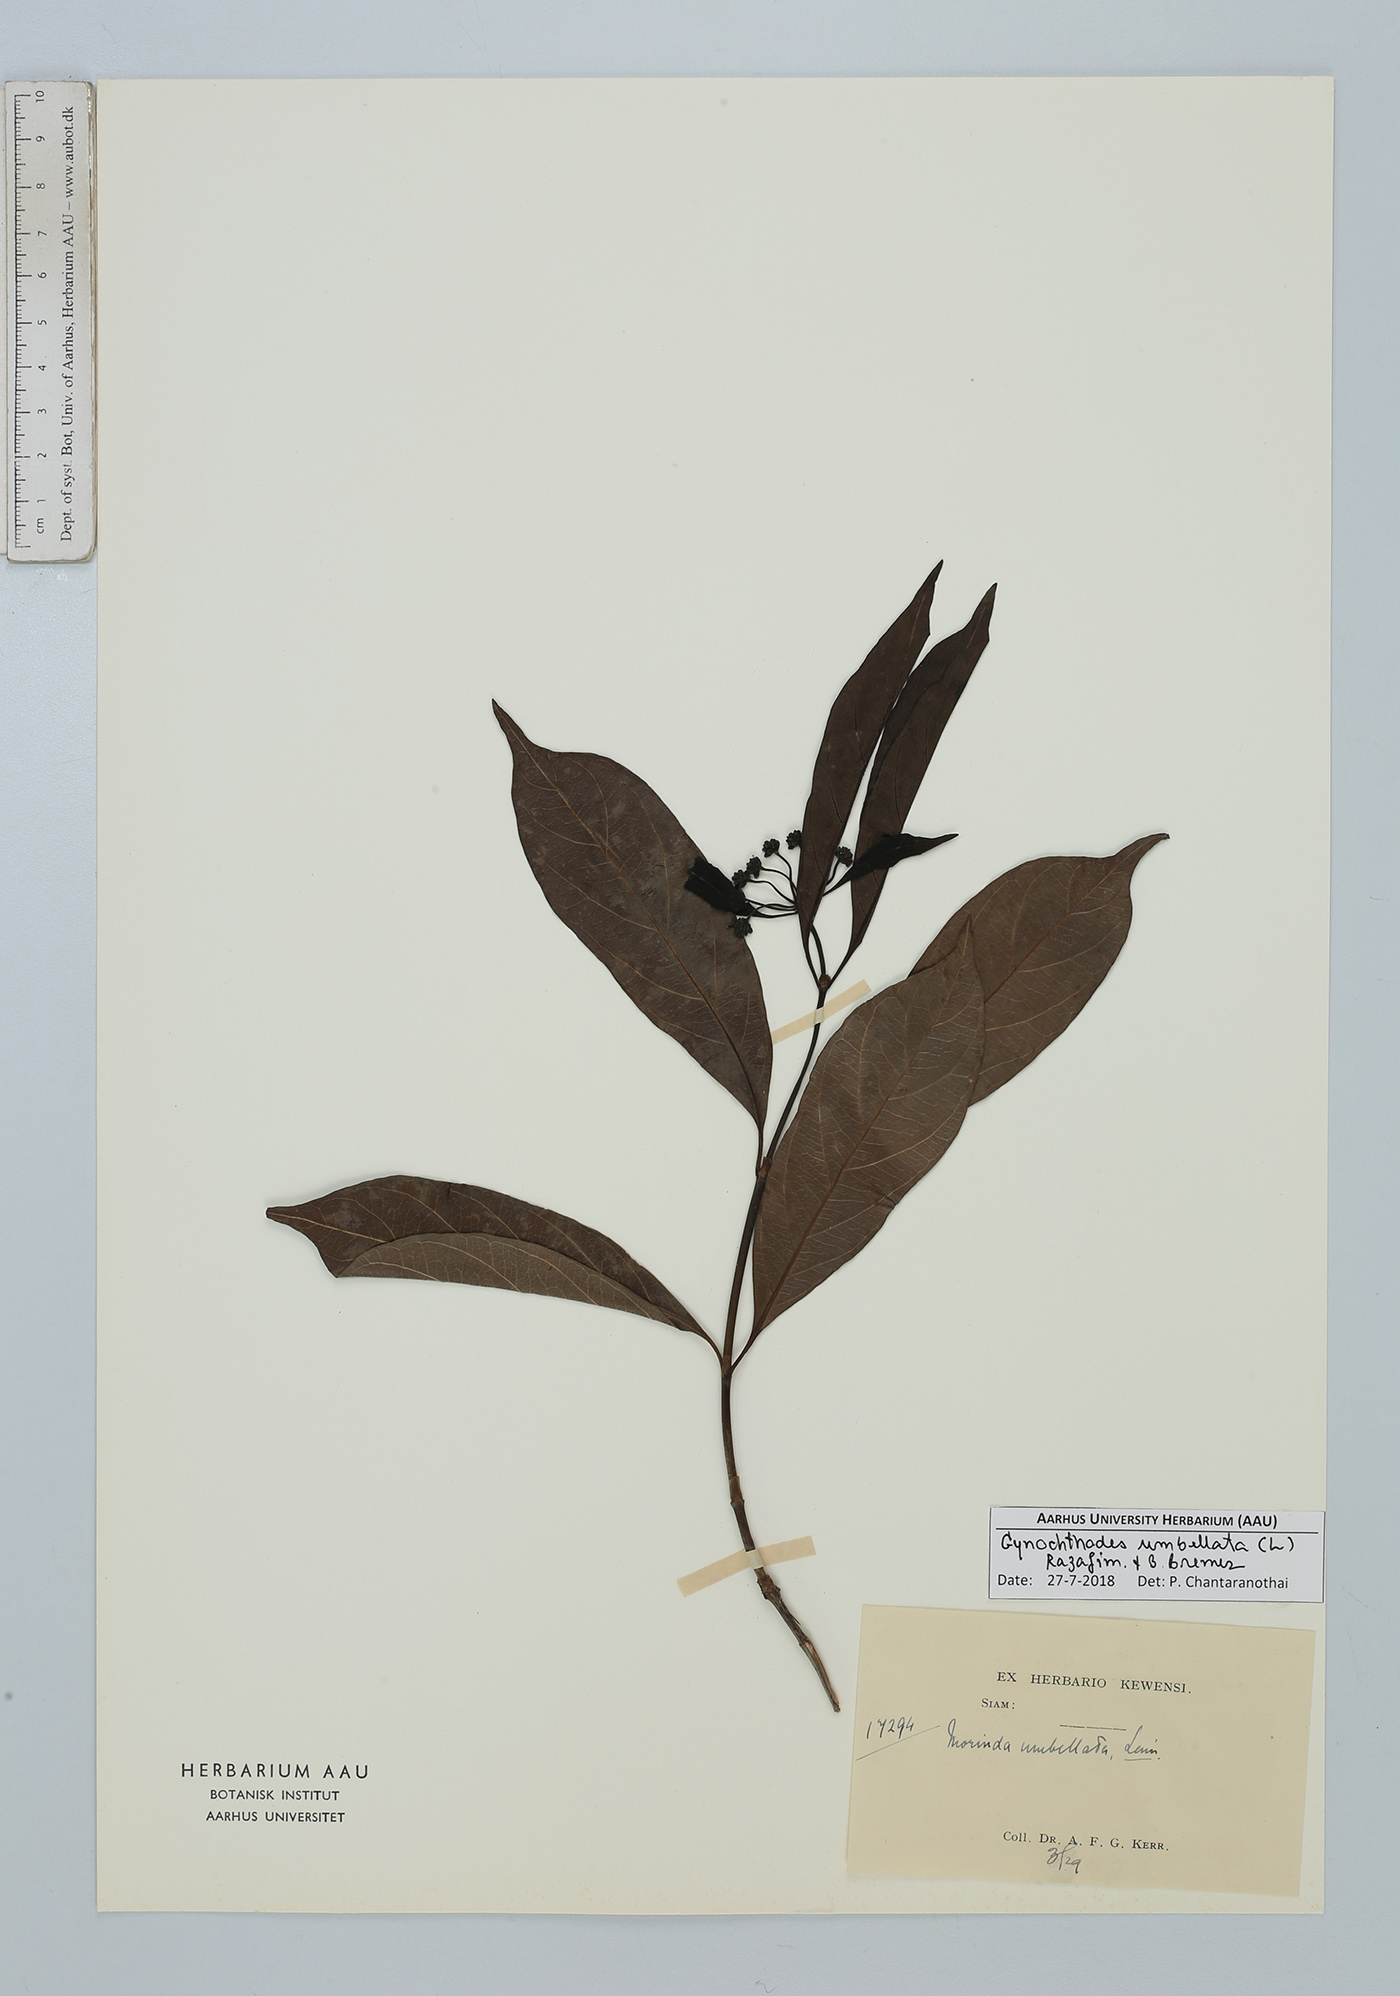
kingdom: Plantae
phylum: Tracheophyta
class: Magnoliopsida
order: Gentianales
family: Rubiaceae
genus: Gynochthodes
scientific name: Gynochthodes umbellata
